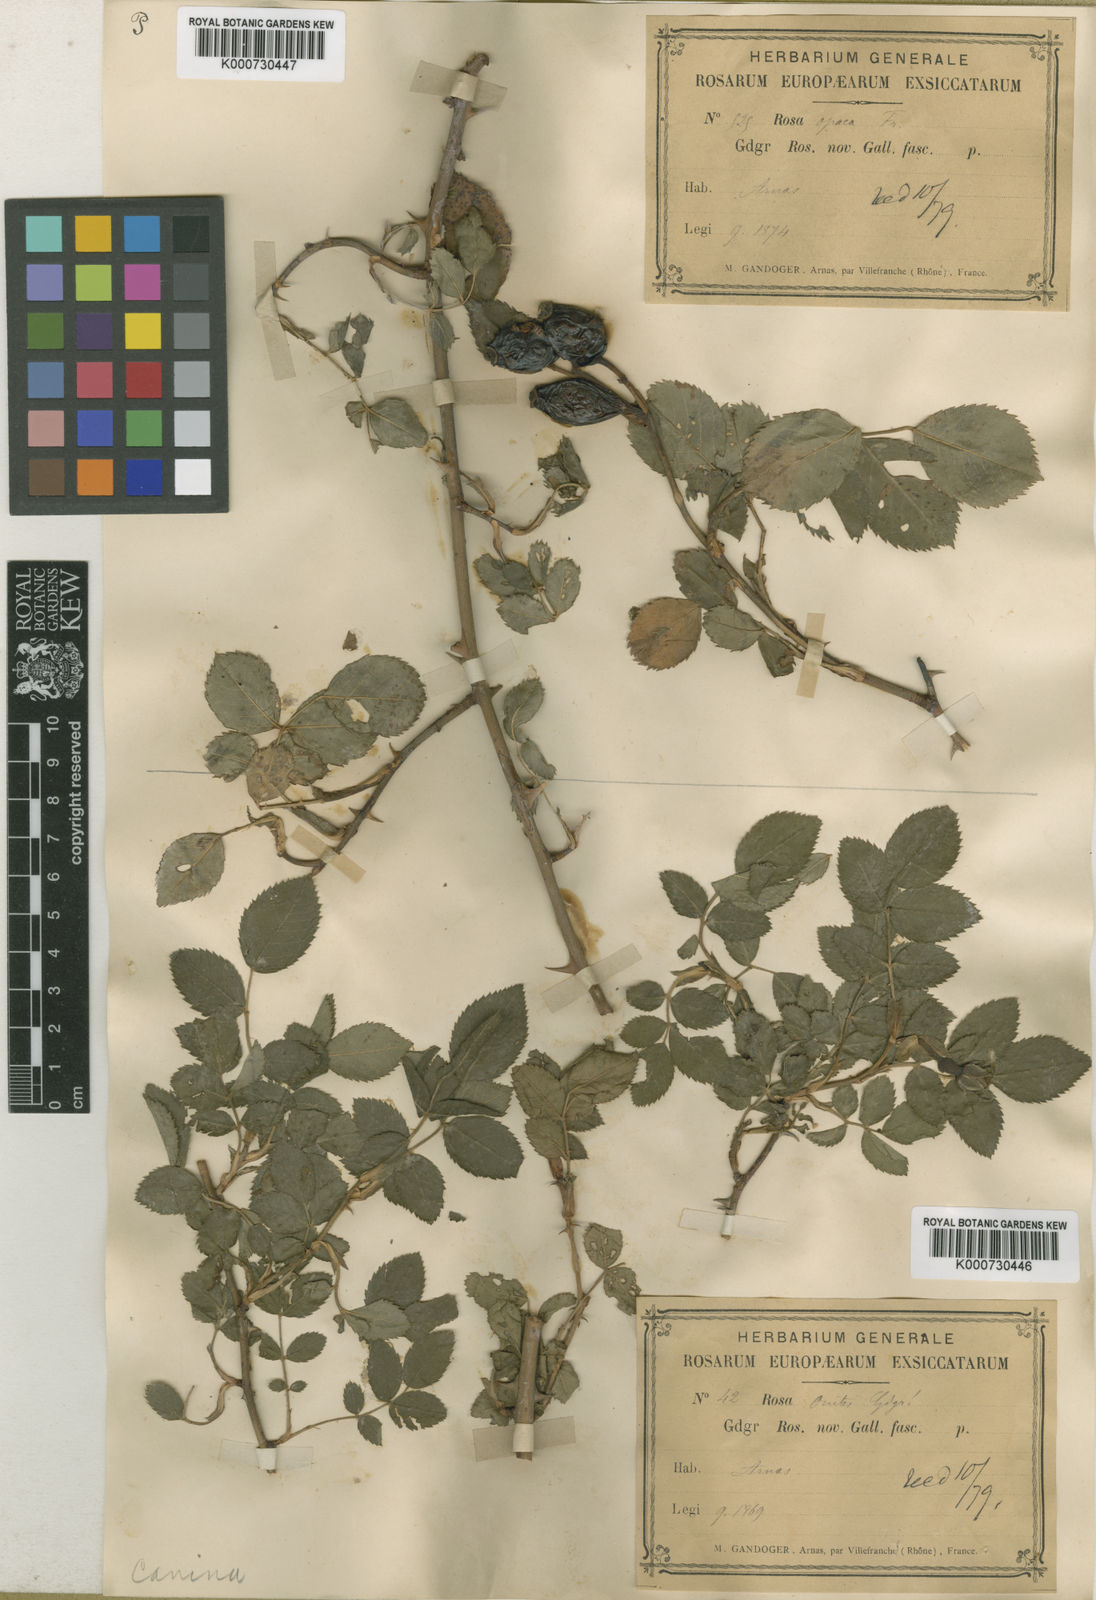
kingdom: Plantae
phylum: Tracheophyta
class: Magnoliopsida
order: Rosales
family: Rosaceae
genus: Rosa
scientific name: Rosa canina
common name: Dog rose
